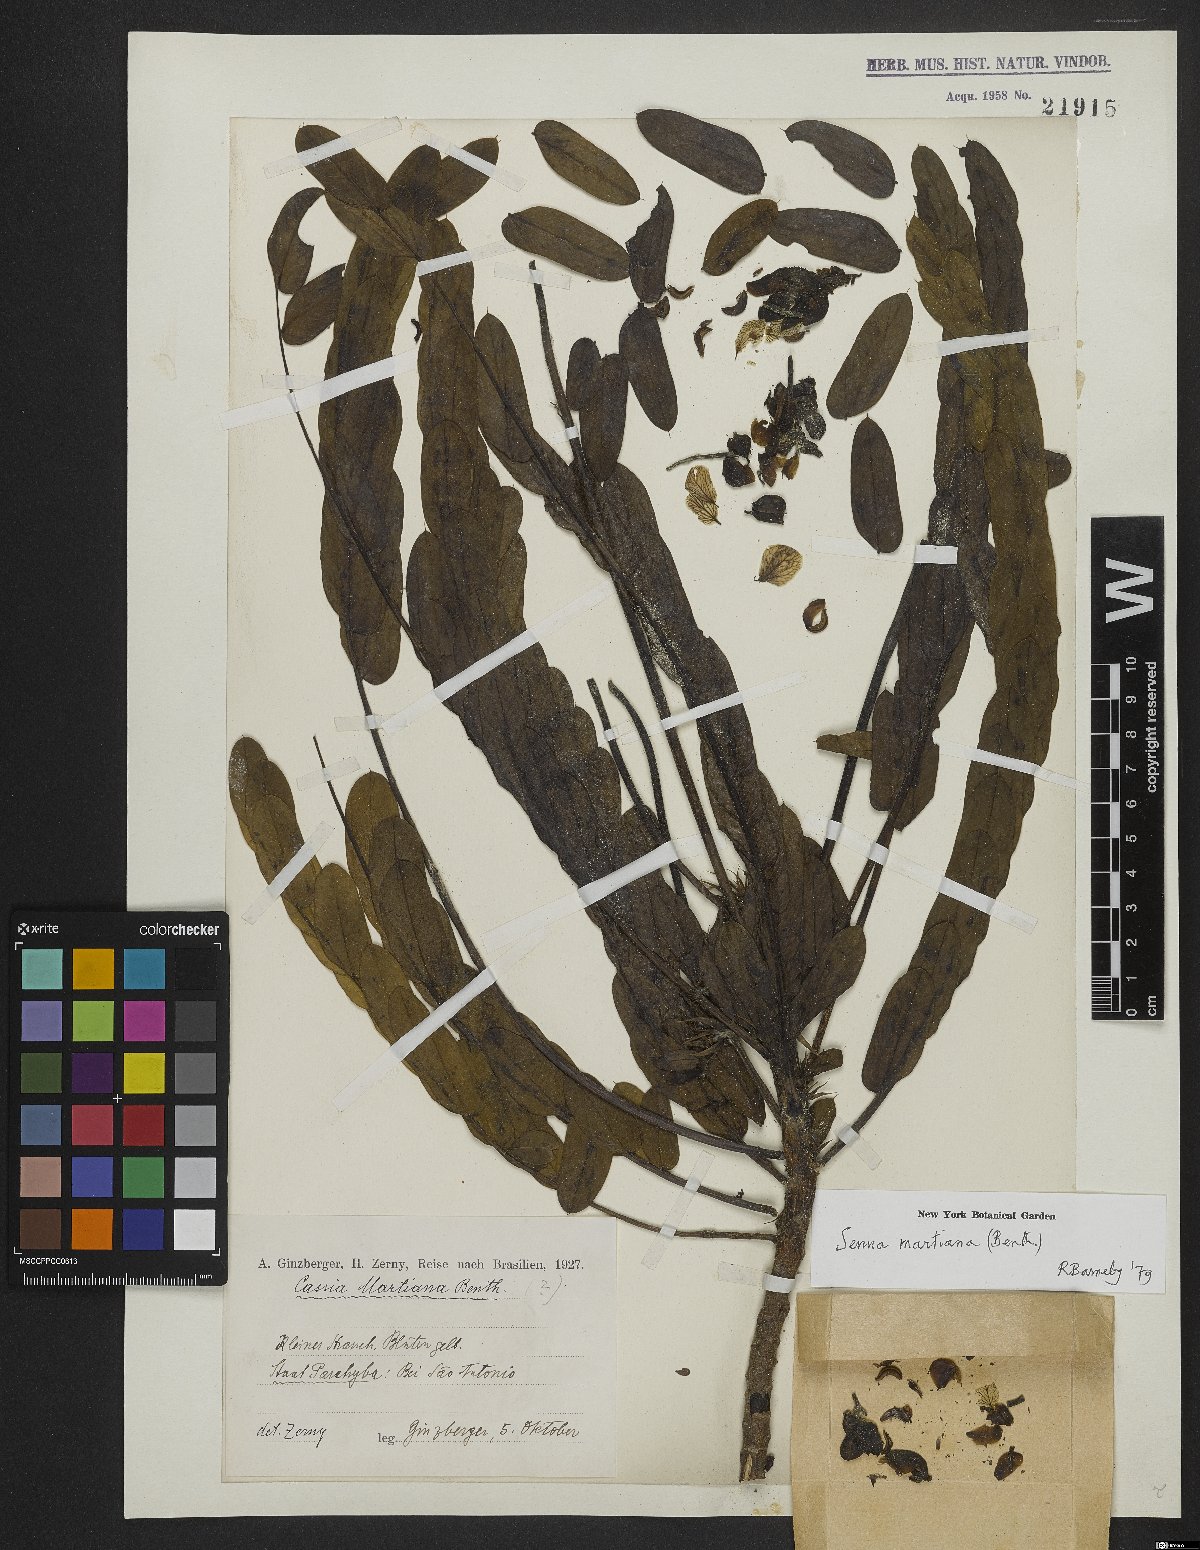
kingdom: Plantae
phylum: Tracheophyta
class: Magnoliopsida
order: Fabales
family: Fabaceae
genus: Senna
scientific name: Senna martiana
